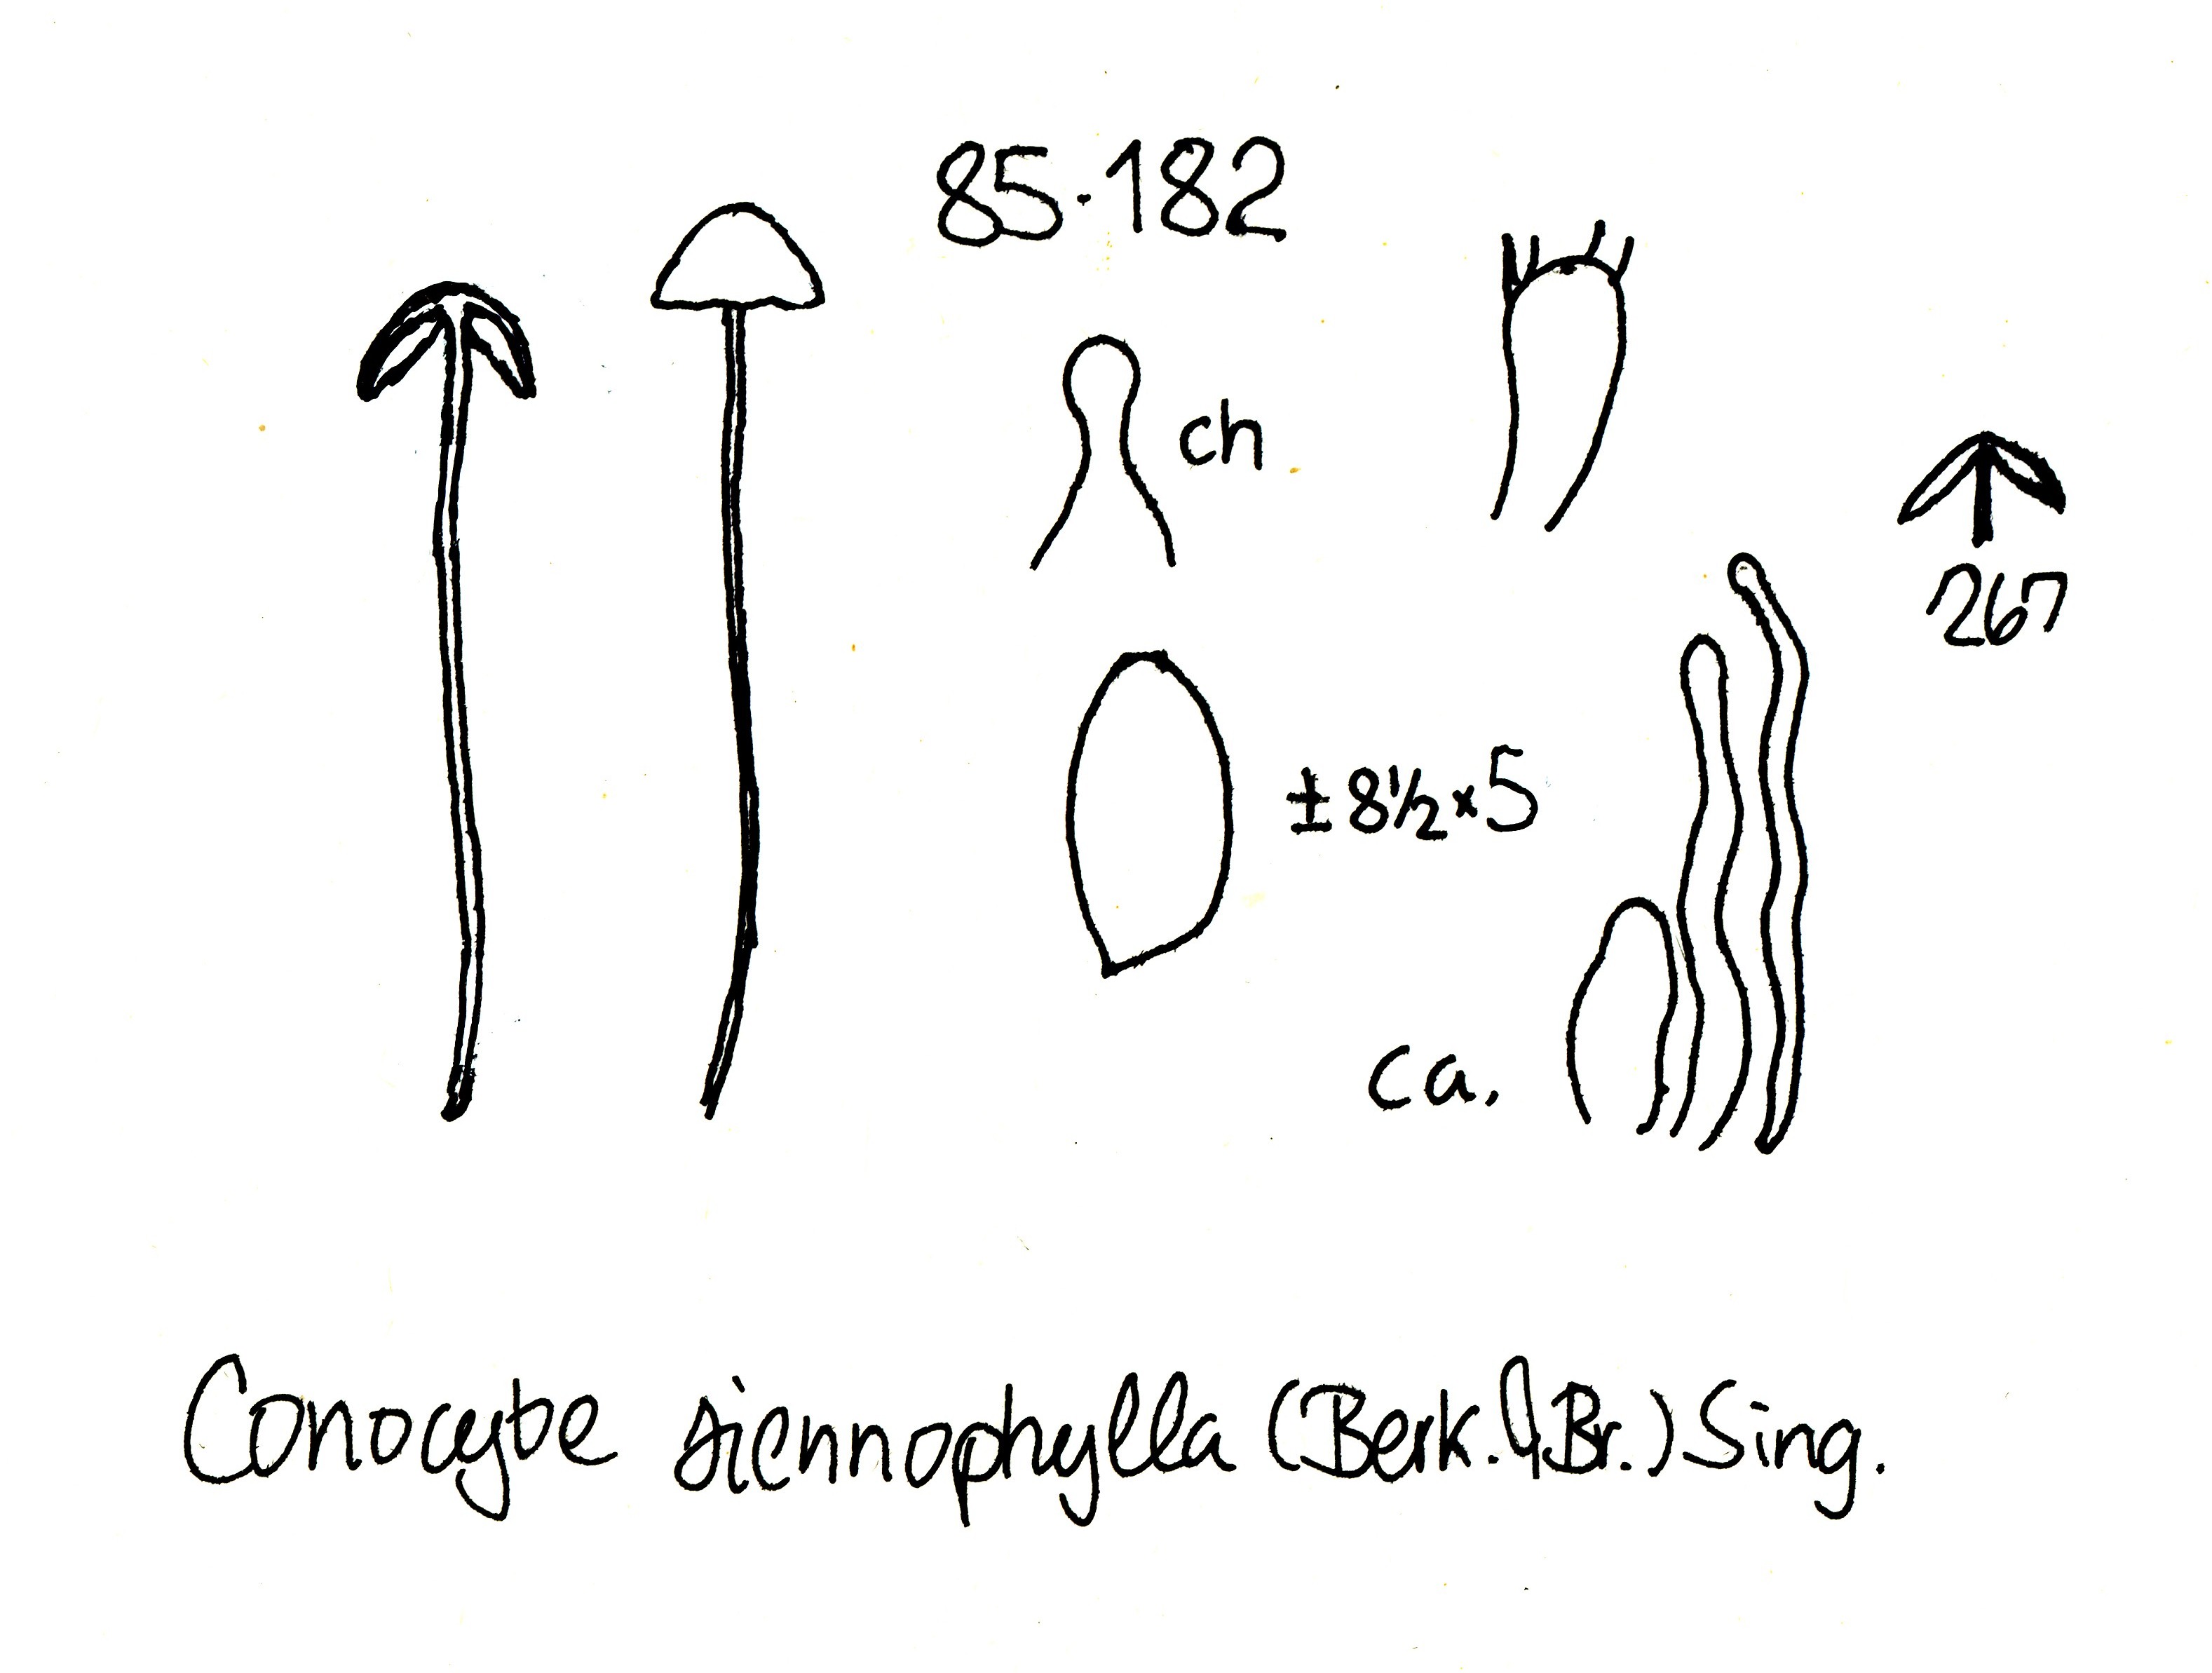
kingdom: Fungi
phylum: Basidiomycota
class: Agaricomycetes
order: Agaricales
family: Bolbitiaceae
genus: Conocybe
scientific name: Conocybe semiglobata
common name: halvkugleformet keglehat
